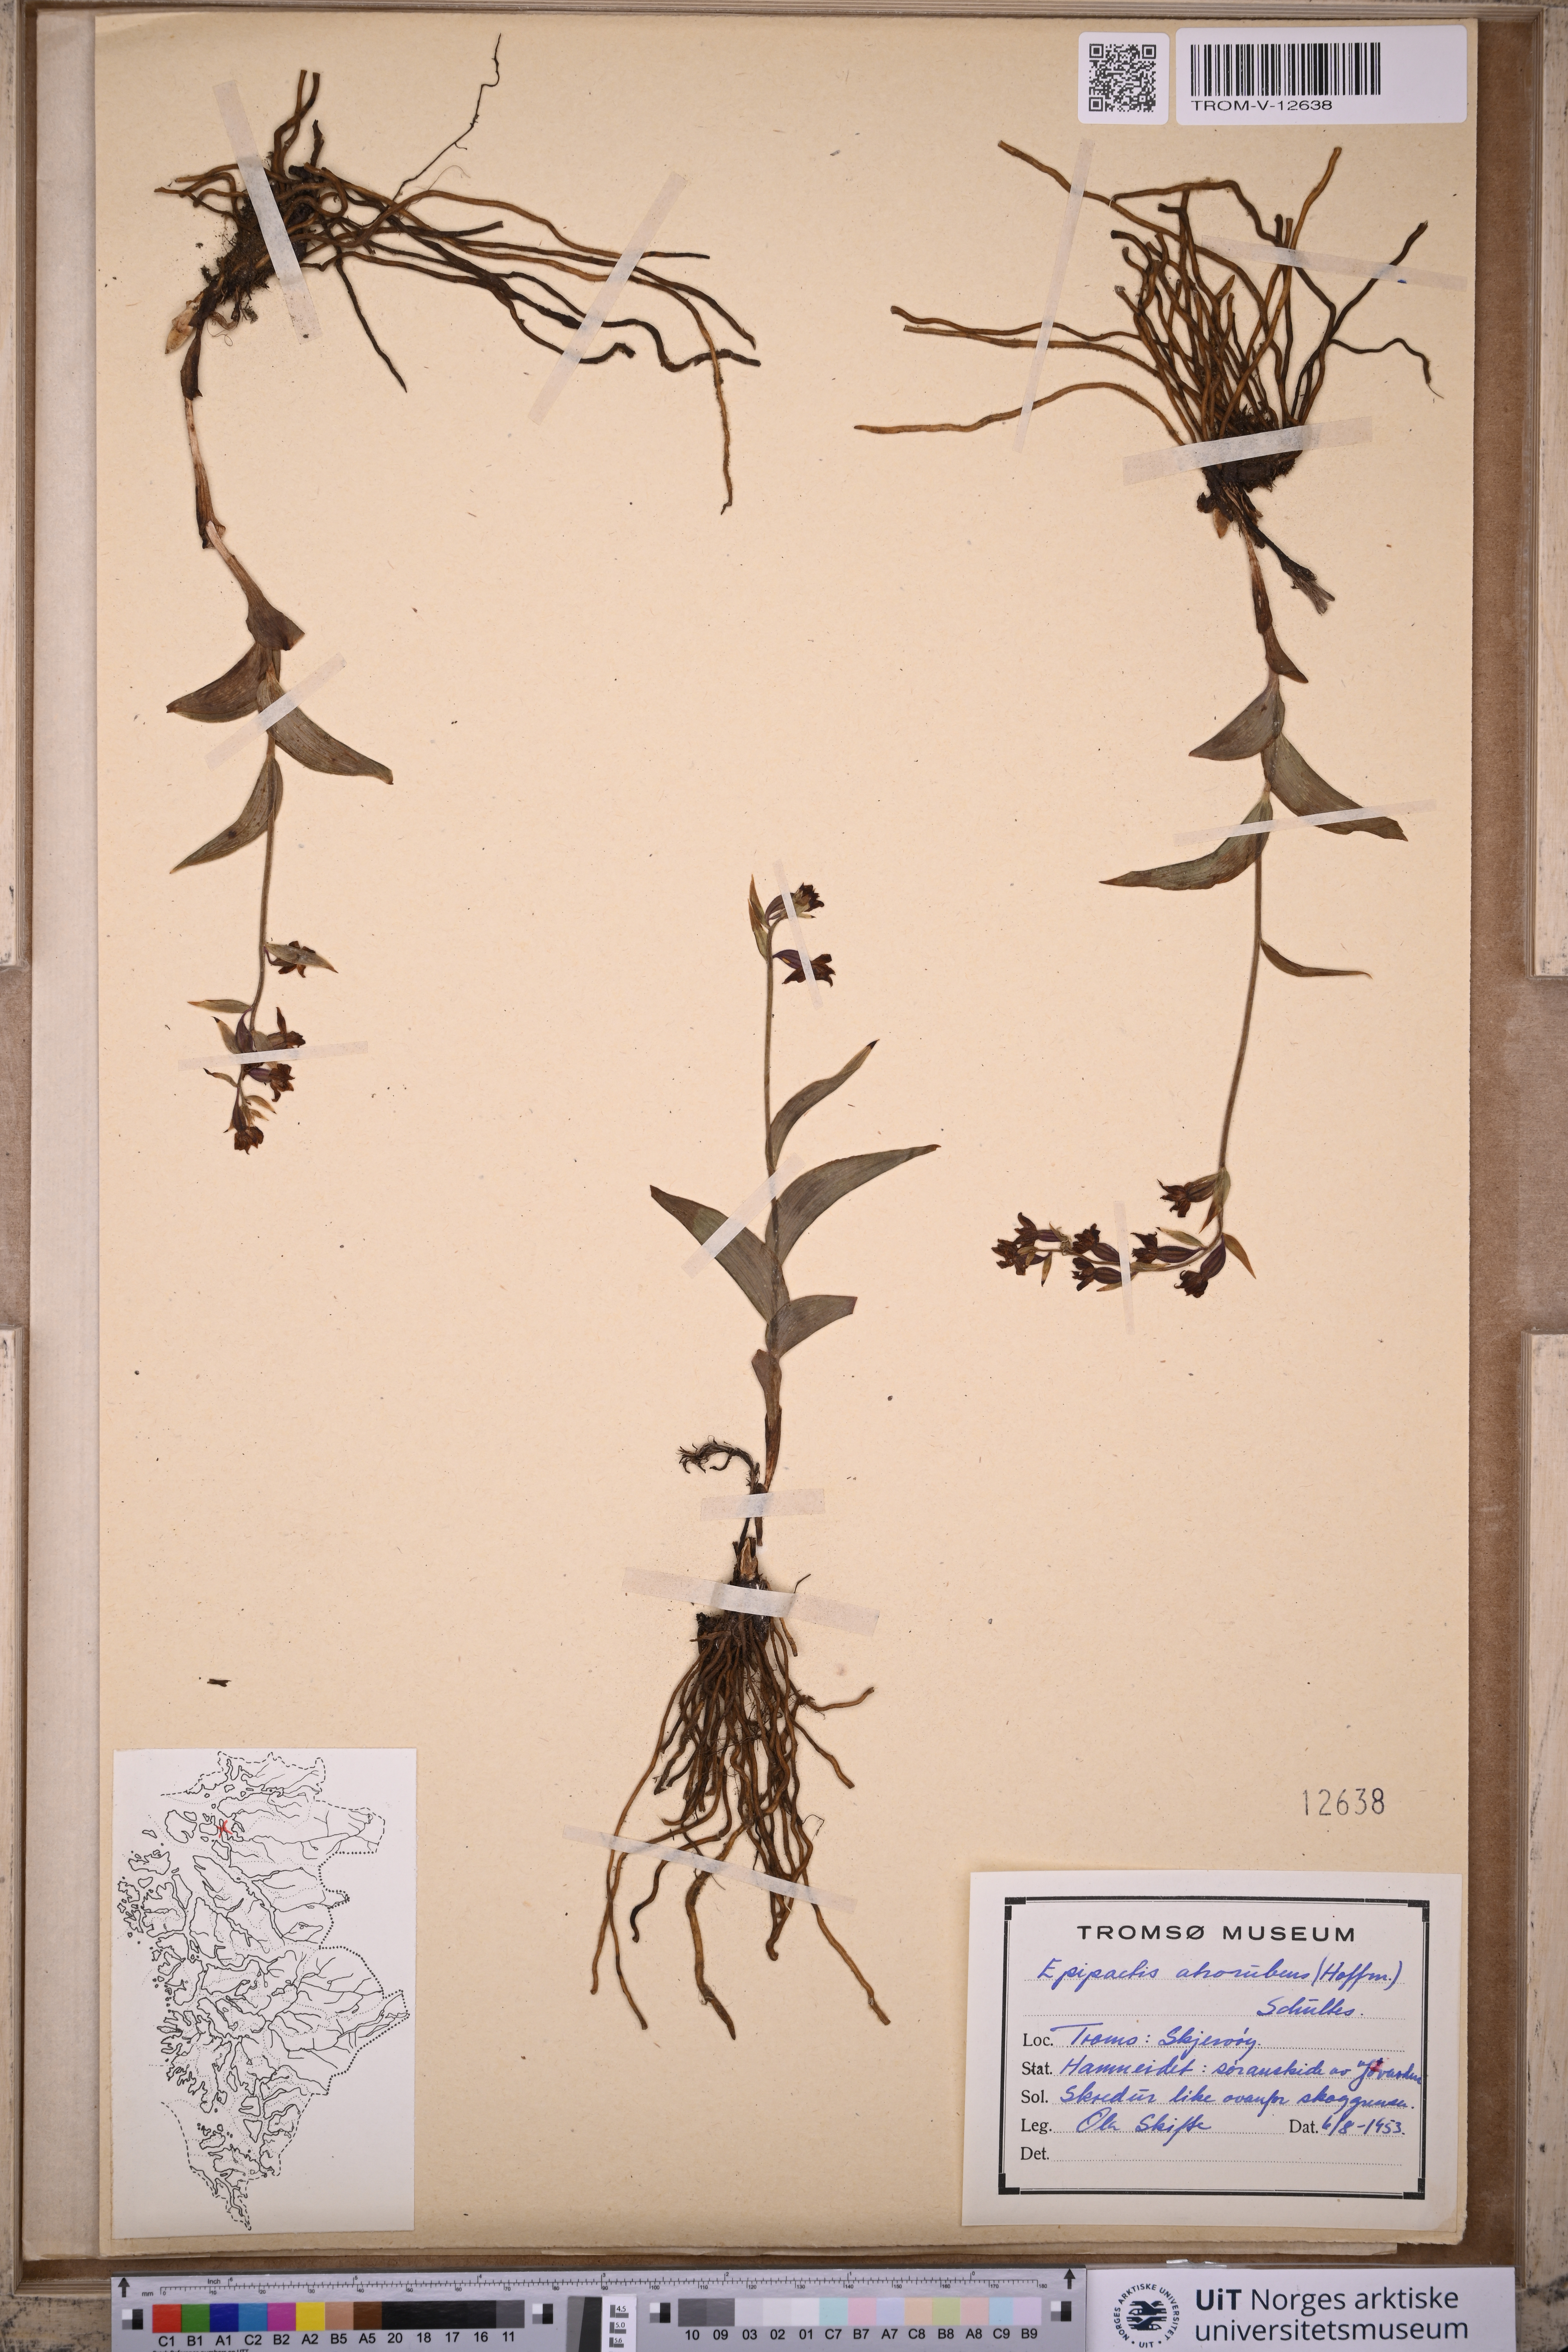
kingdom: Plantae
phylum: Tracheophyta
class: Liliopsida
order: Asparagales
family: Orchidaceae
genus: Epipactis
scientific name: Epipactis atrorubens
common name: Dark-red helleborine
